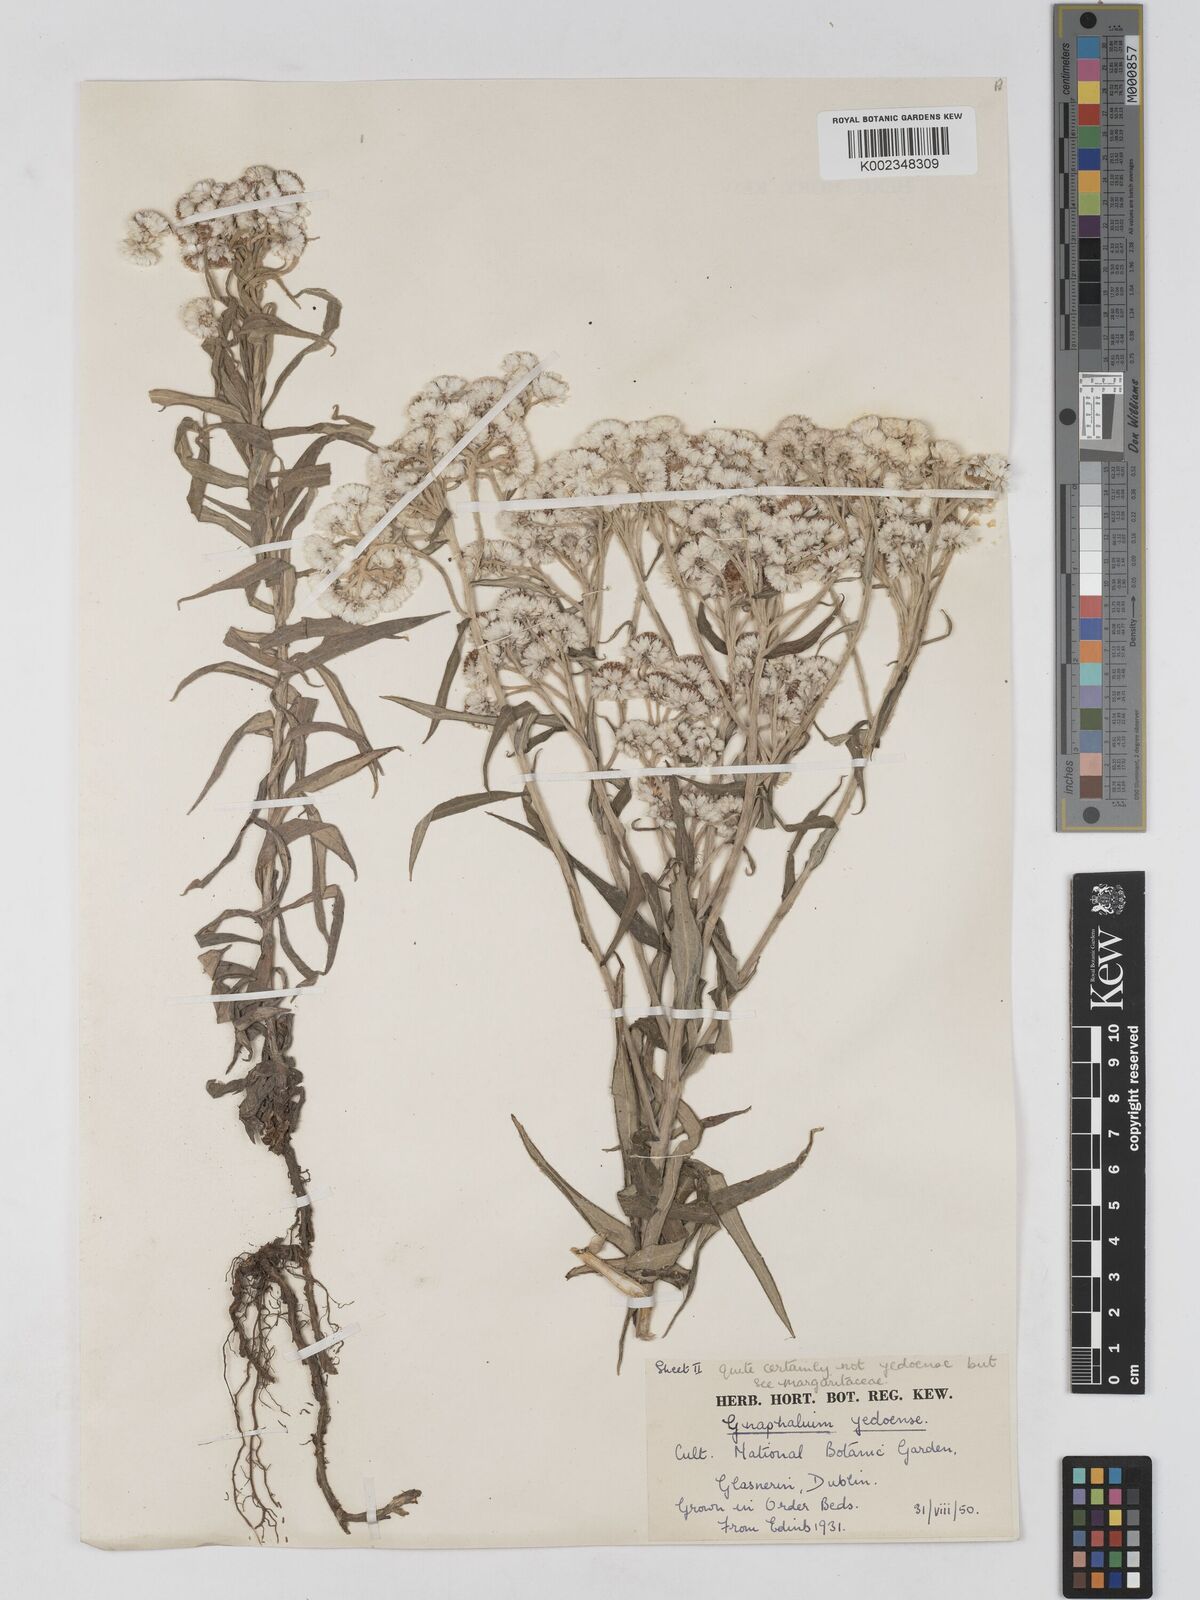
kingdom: Plantae
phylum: Tracheophyta
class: Magnoliopsida
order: Asterales
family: Asteraceae
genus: Anaphalis
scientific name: Anaphalis margaritacea
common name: Pearly everlasting
